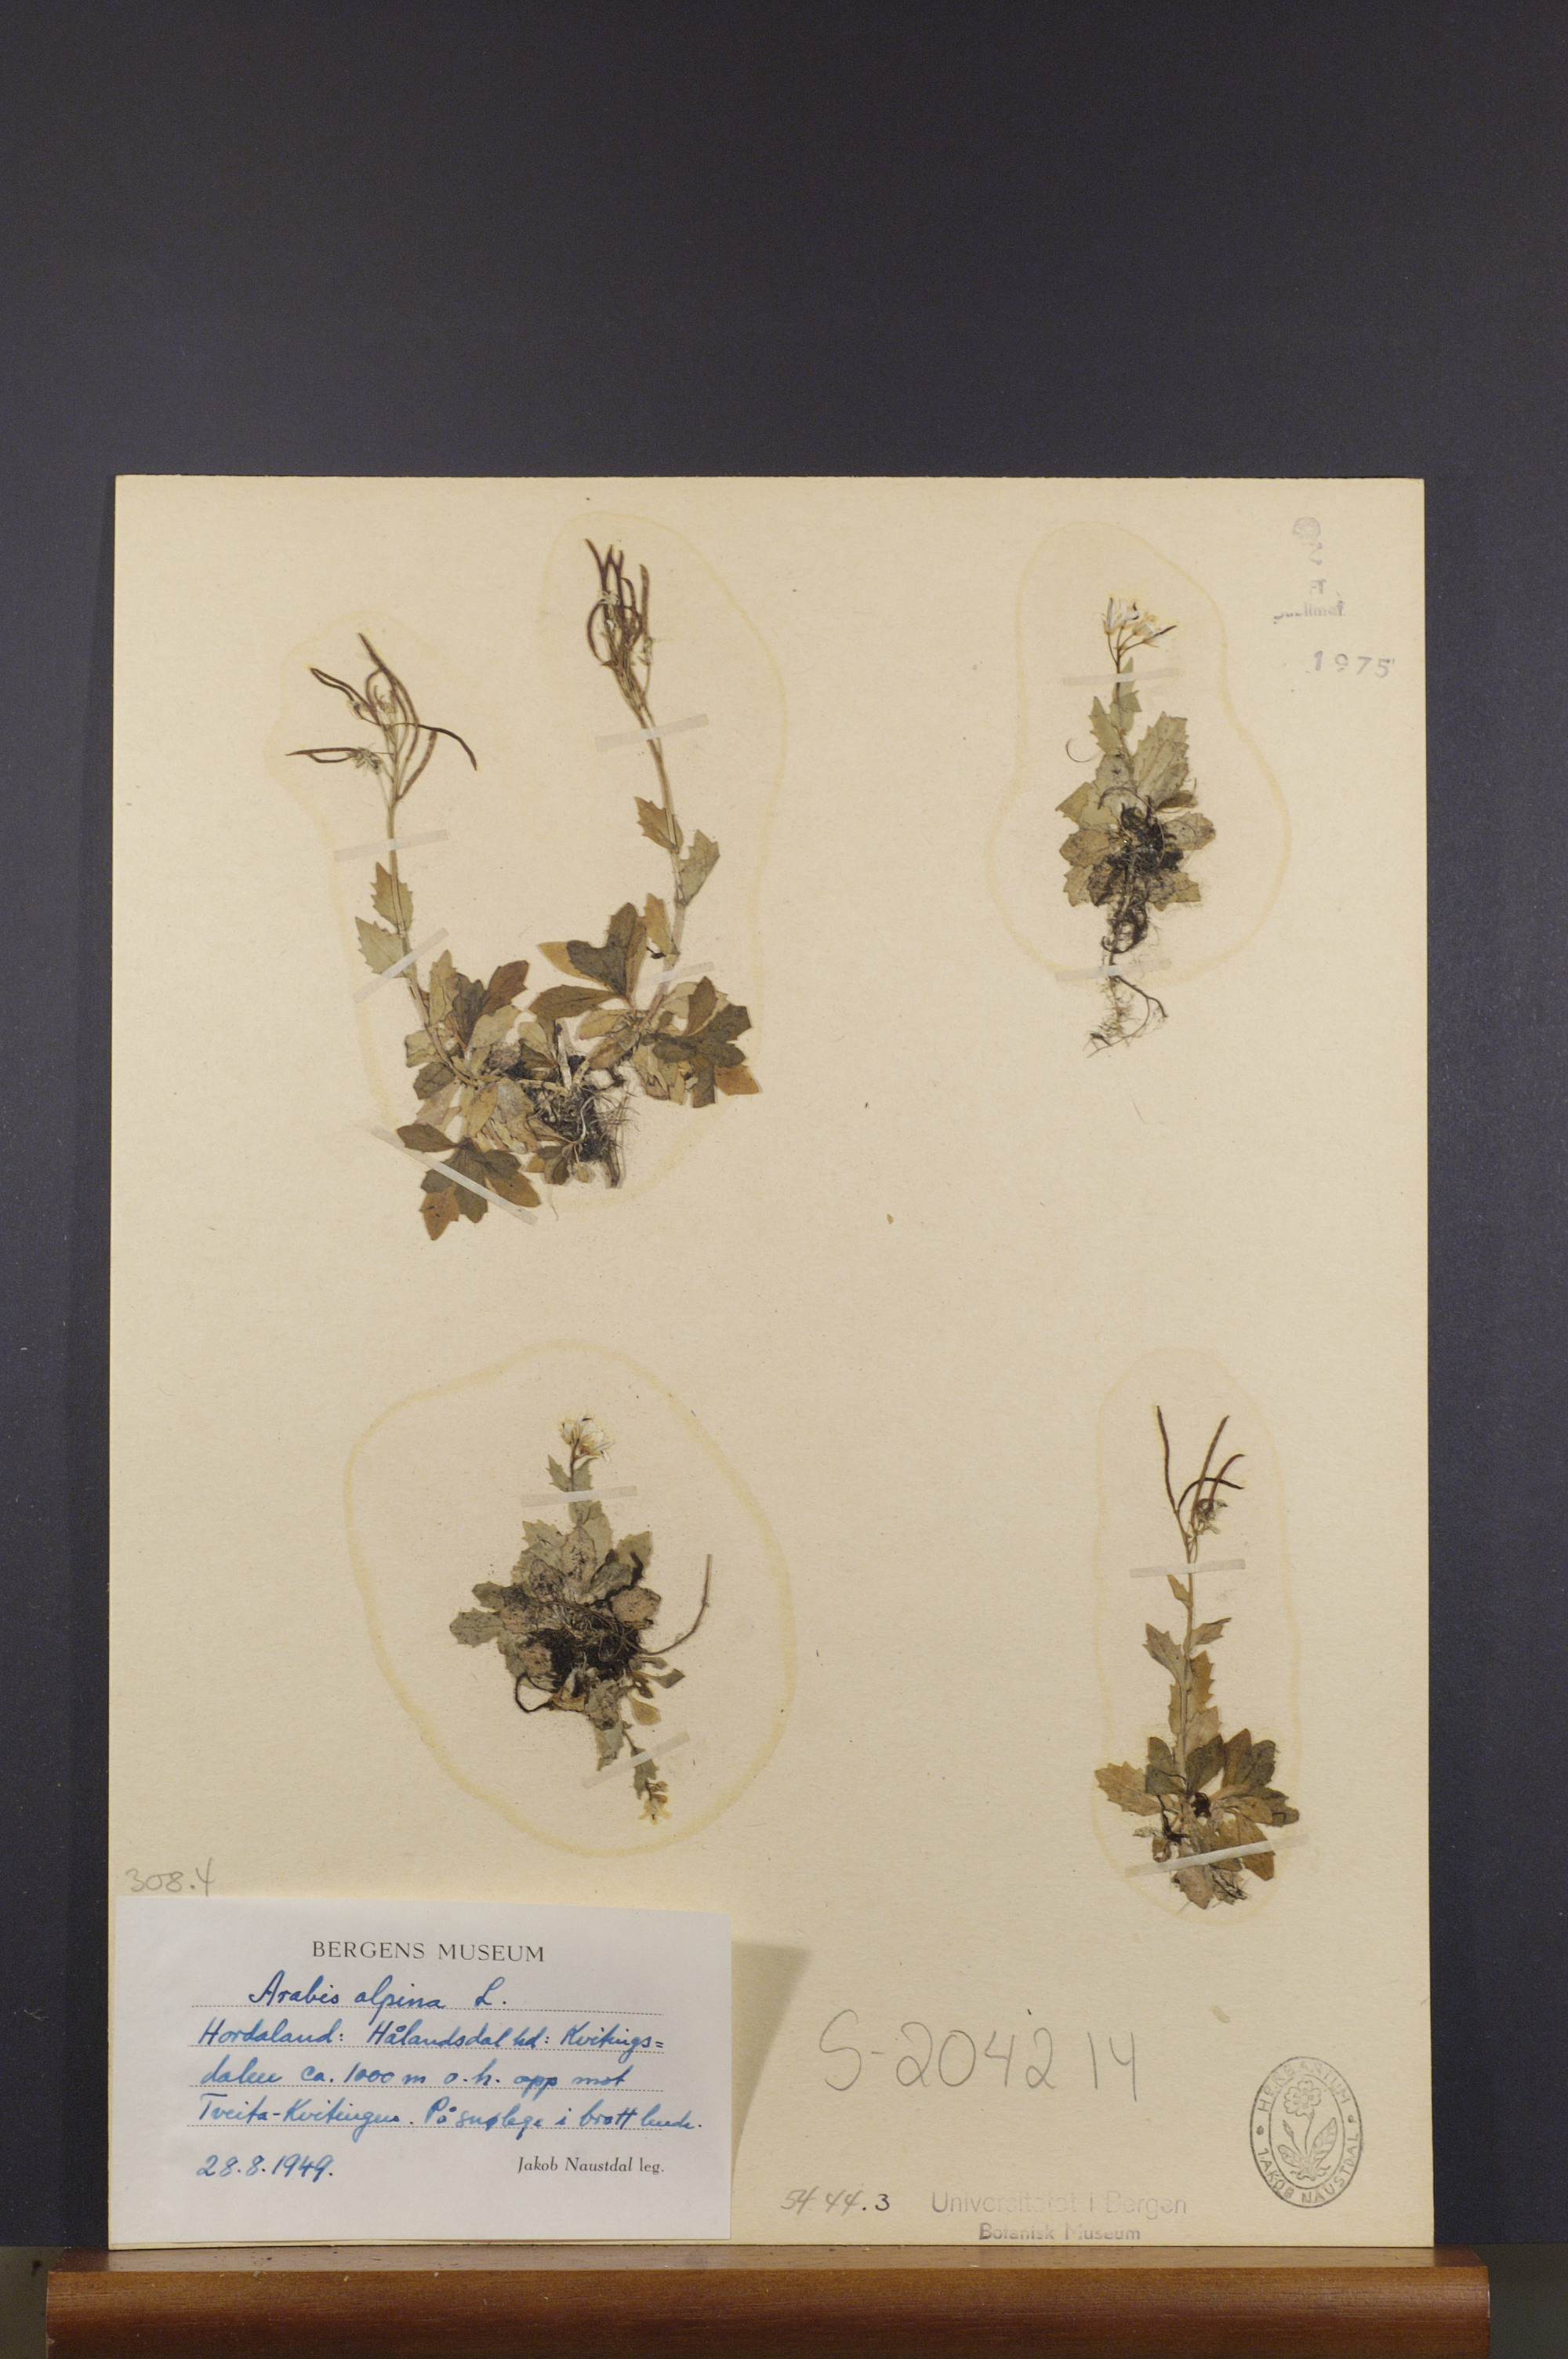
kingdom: Plantae
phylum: Tracheophyta
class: Magnoliopsida
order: Brassicales
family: Brassicaceae
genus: Arabis
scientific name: Arabis alpina
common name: Alpine rock-cress
